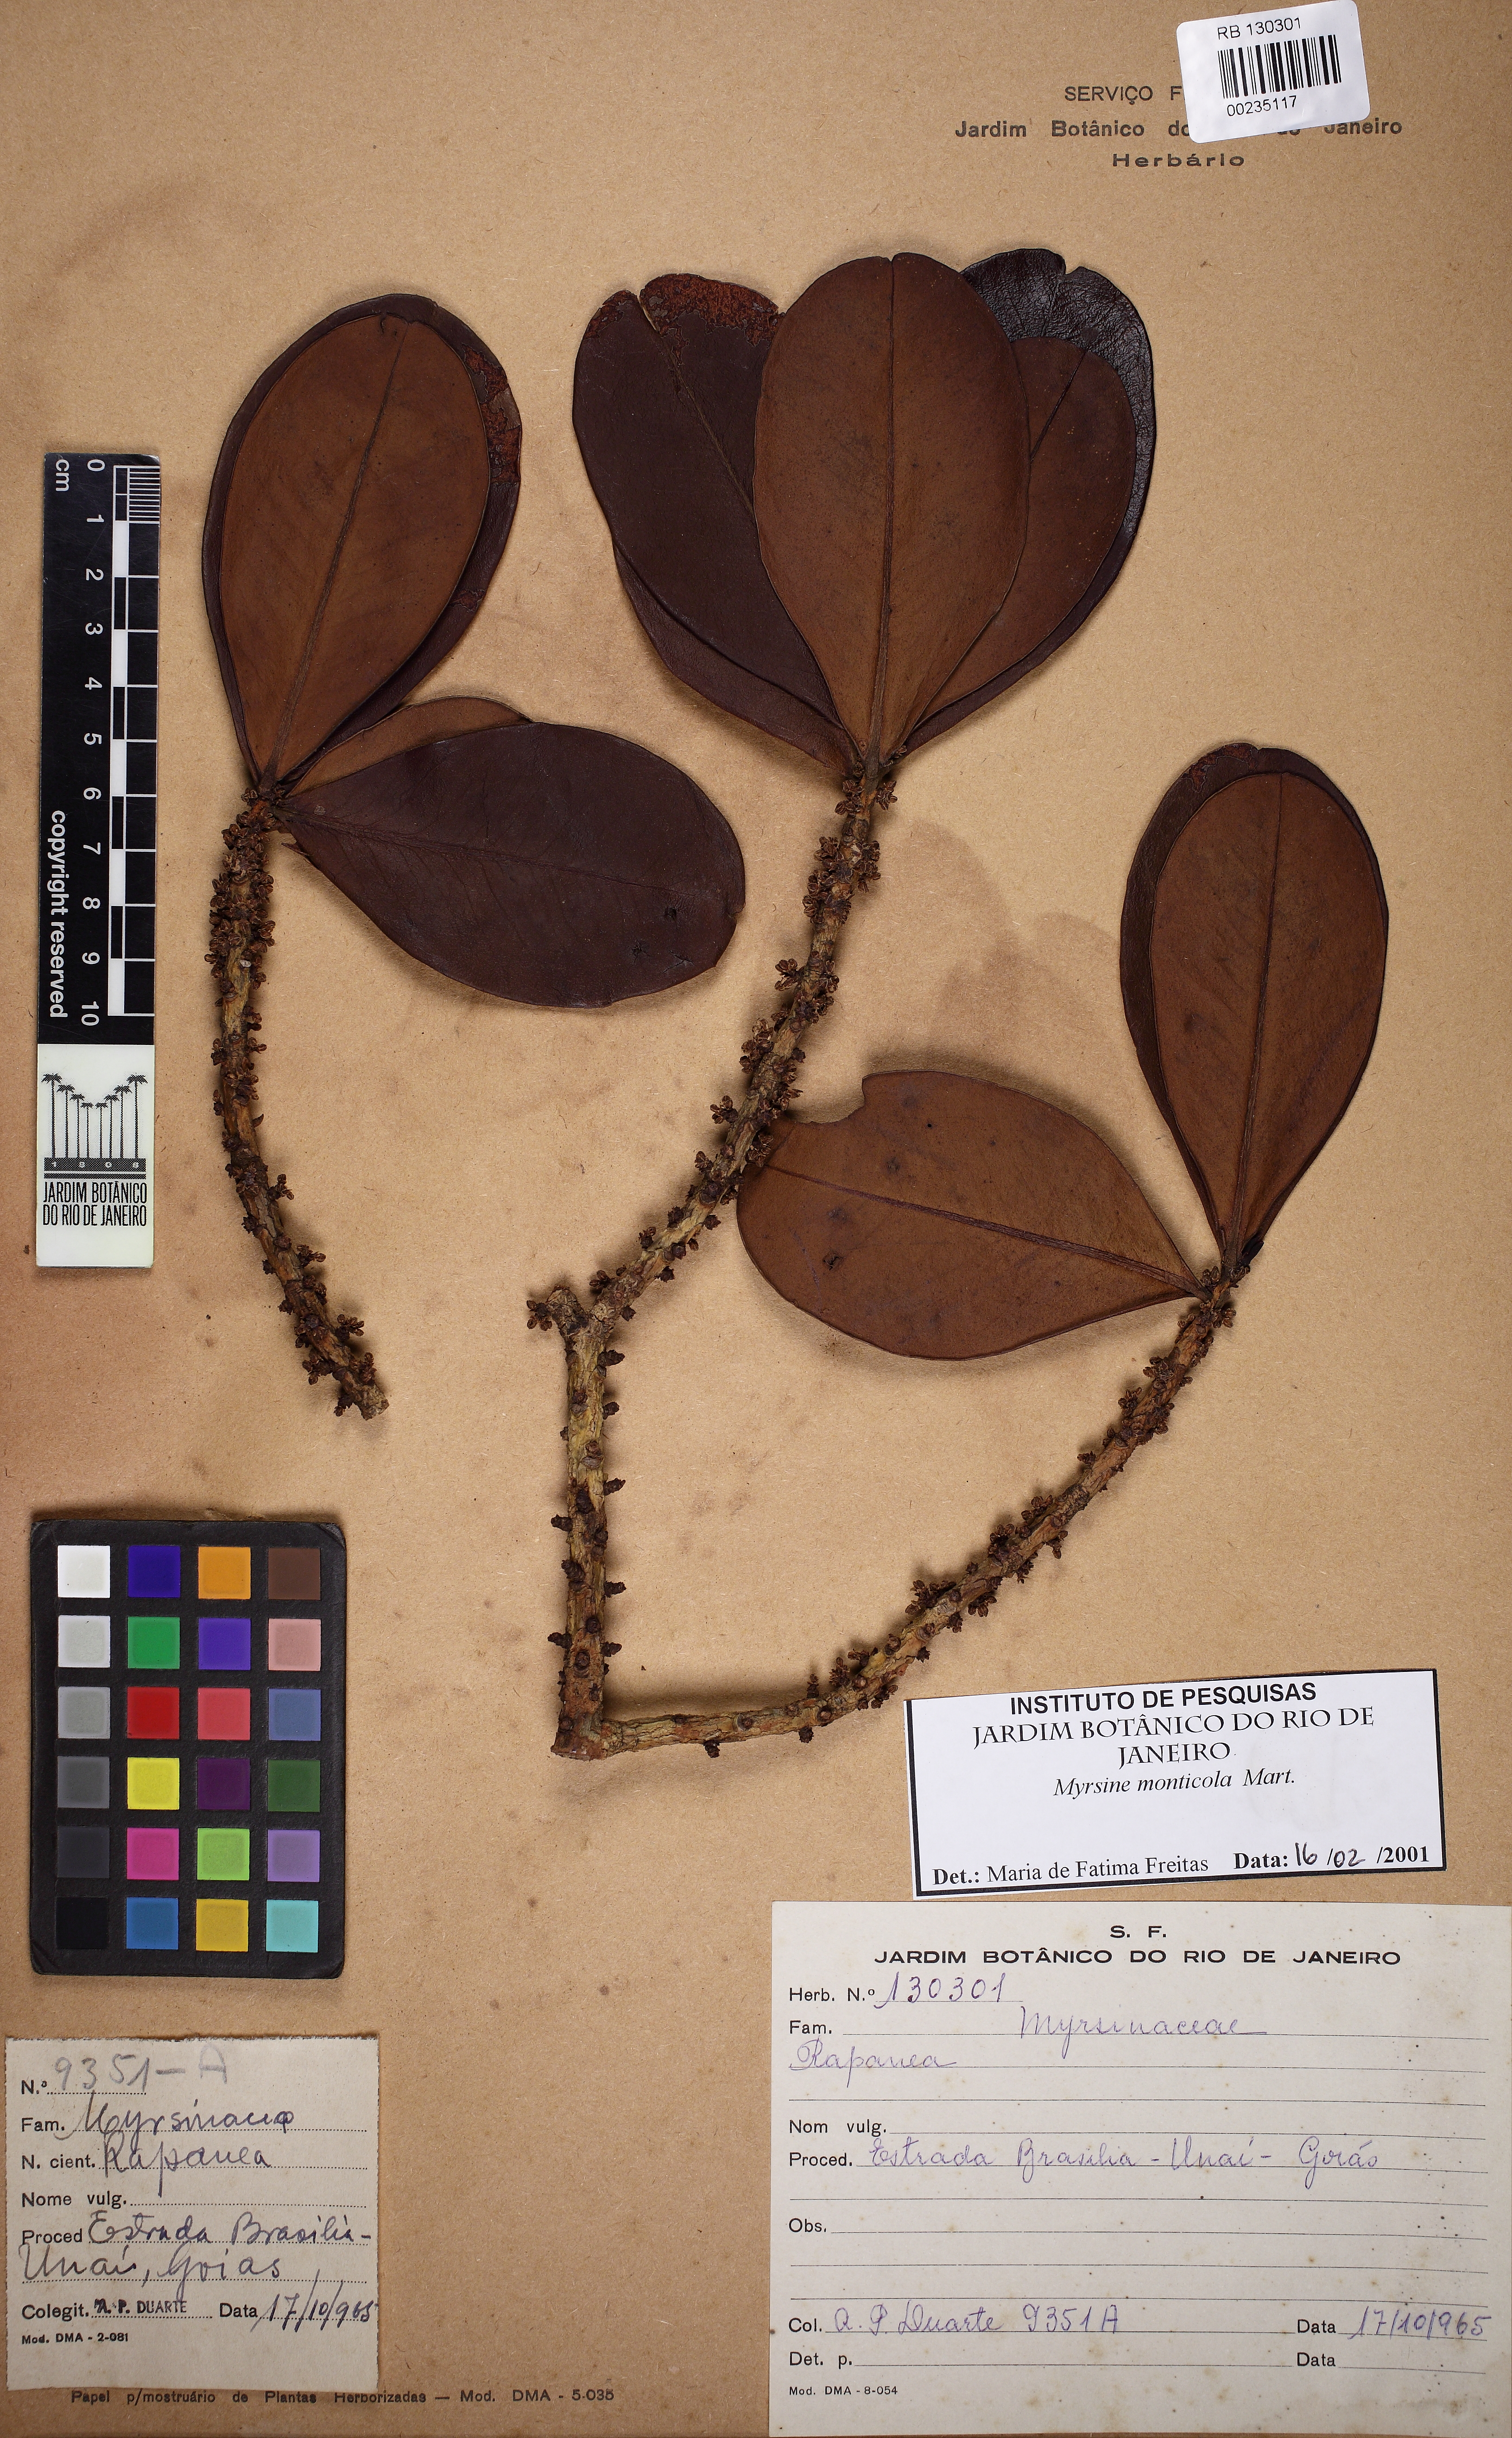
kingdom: Plantae
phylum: Tracheophyta
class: Magnoliopsida
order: Ericales
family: Primulaceae
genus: Myrsine
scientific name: Myrsine monticola
